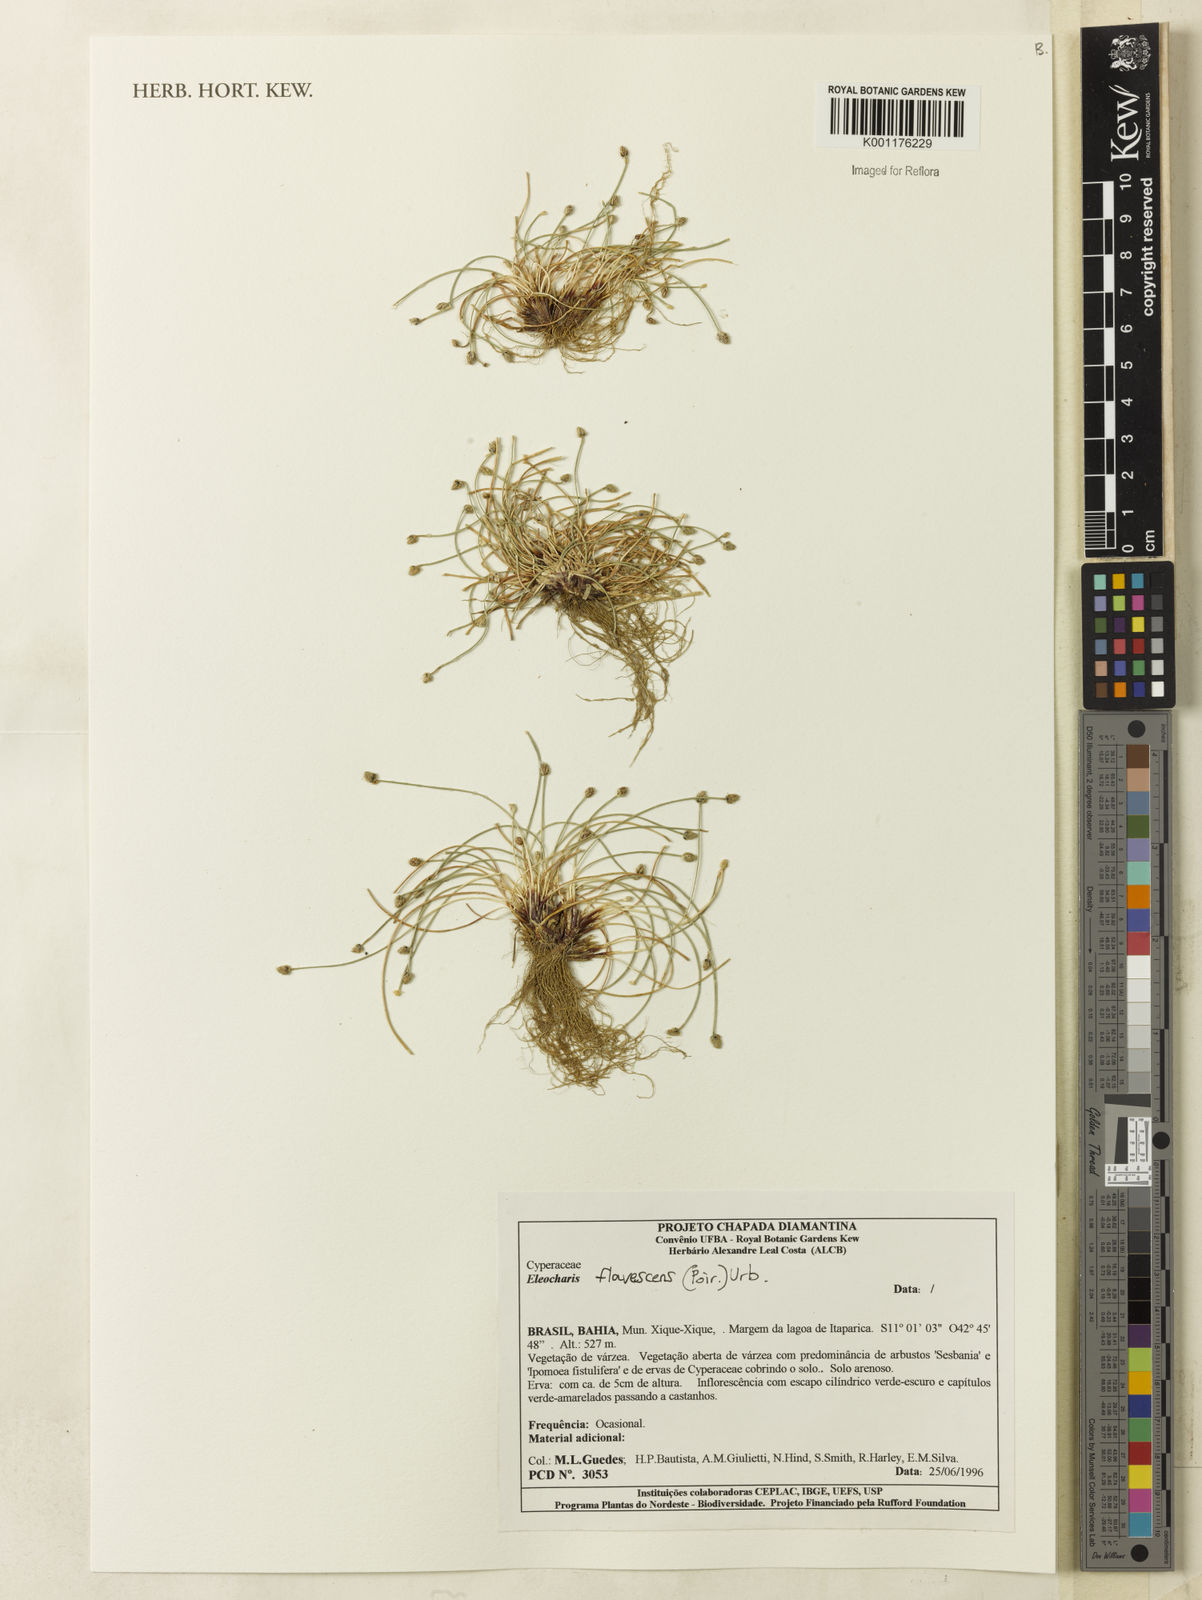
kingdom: Plantae
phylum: Tracheophyta
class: Liliopsida
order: Poales
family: Cyperaceae
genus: Eleocharis
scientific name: Eleocharis flavescens
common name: Yellow spikerush
